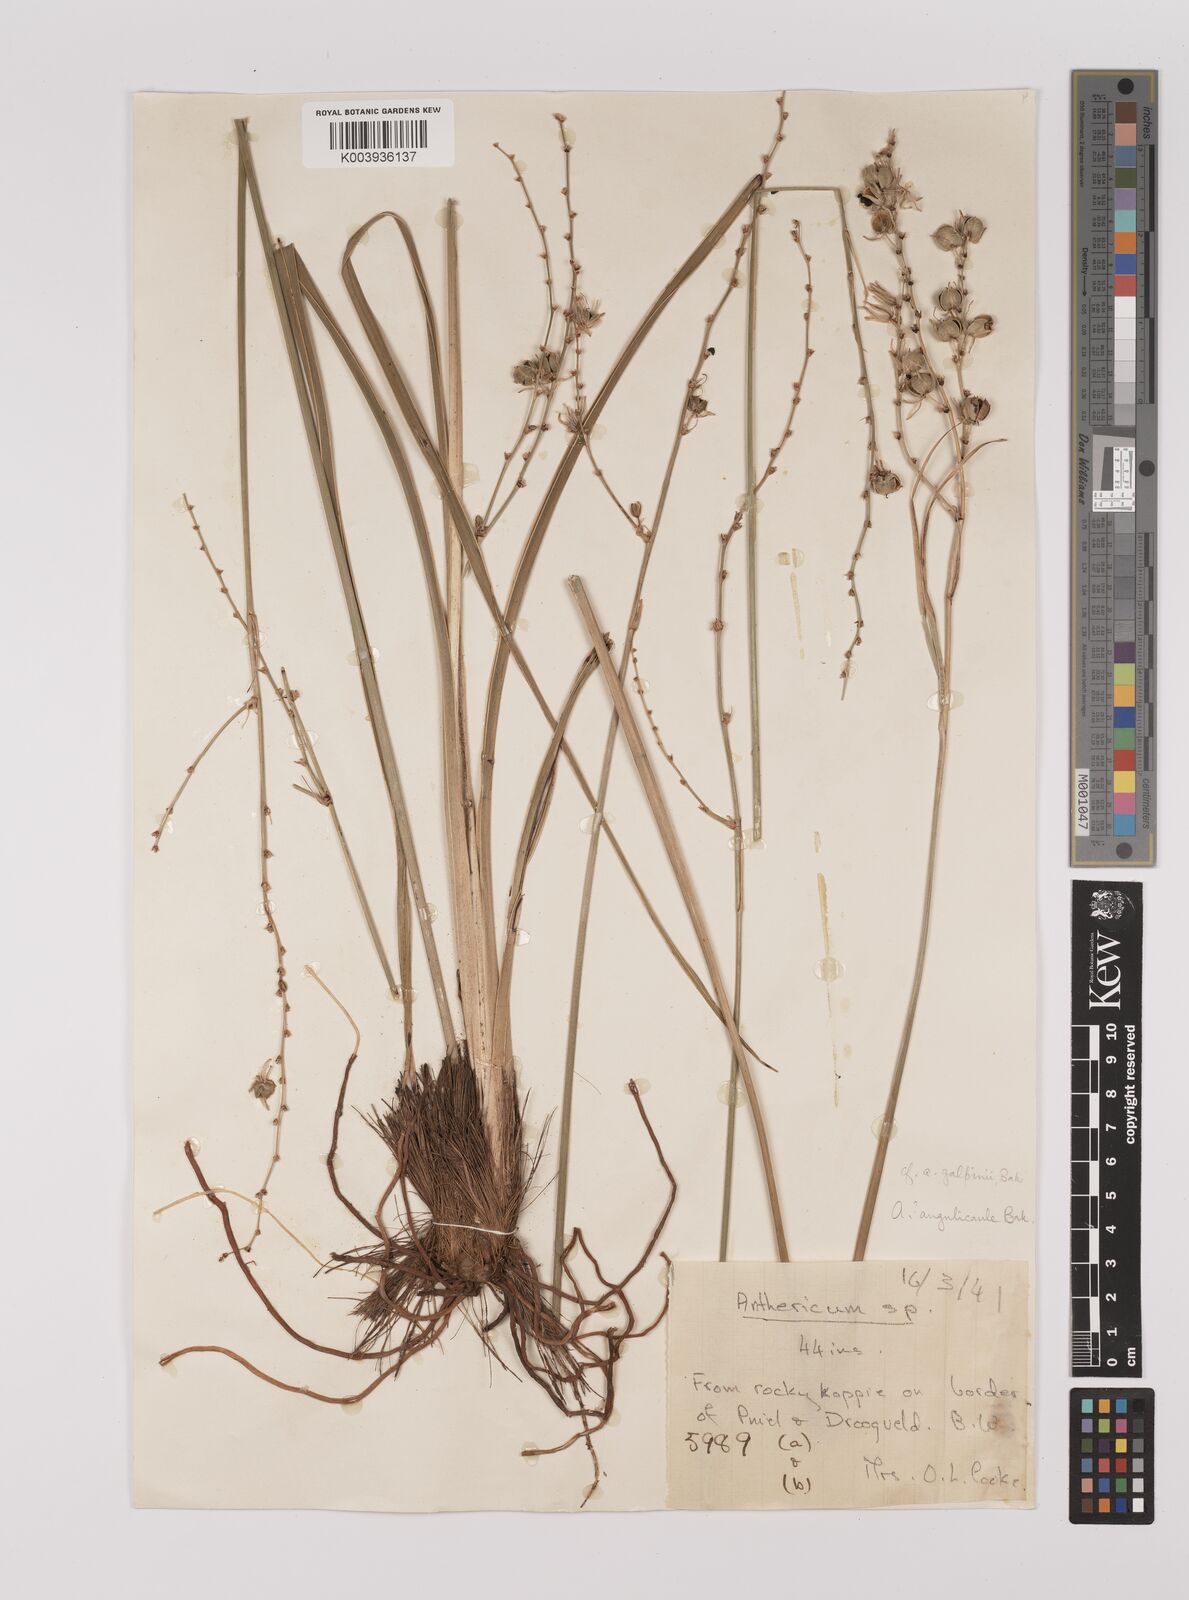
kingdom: Plantae
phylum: Tracheophyta
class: Liliopsida
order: Asparagales
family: Asparagaceae
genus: Chlorophytum
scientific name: Chlorophytum
